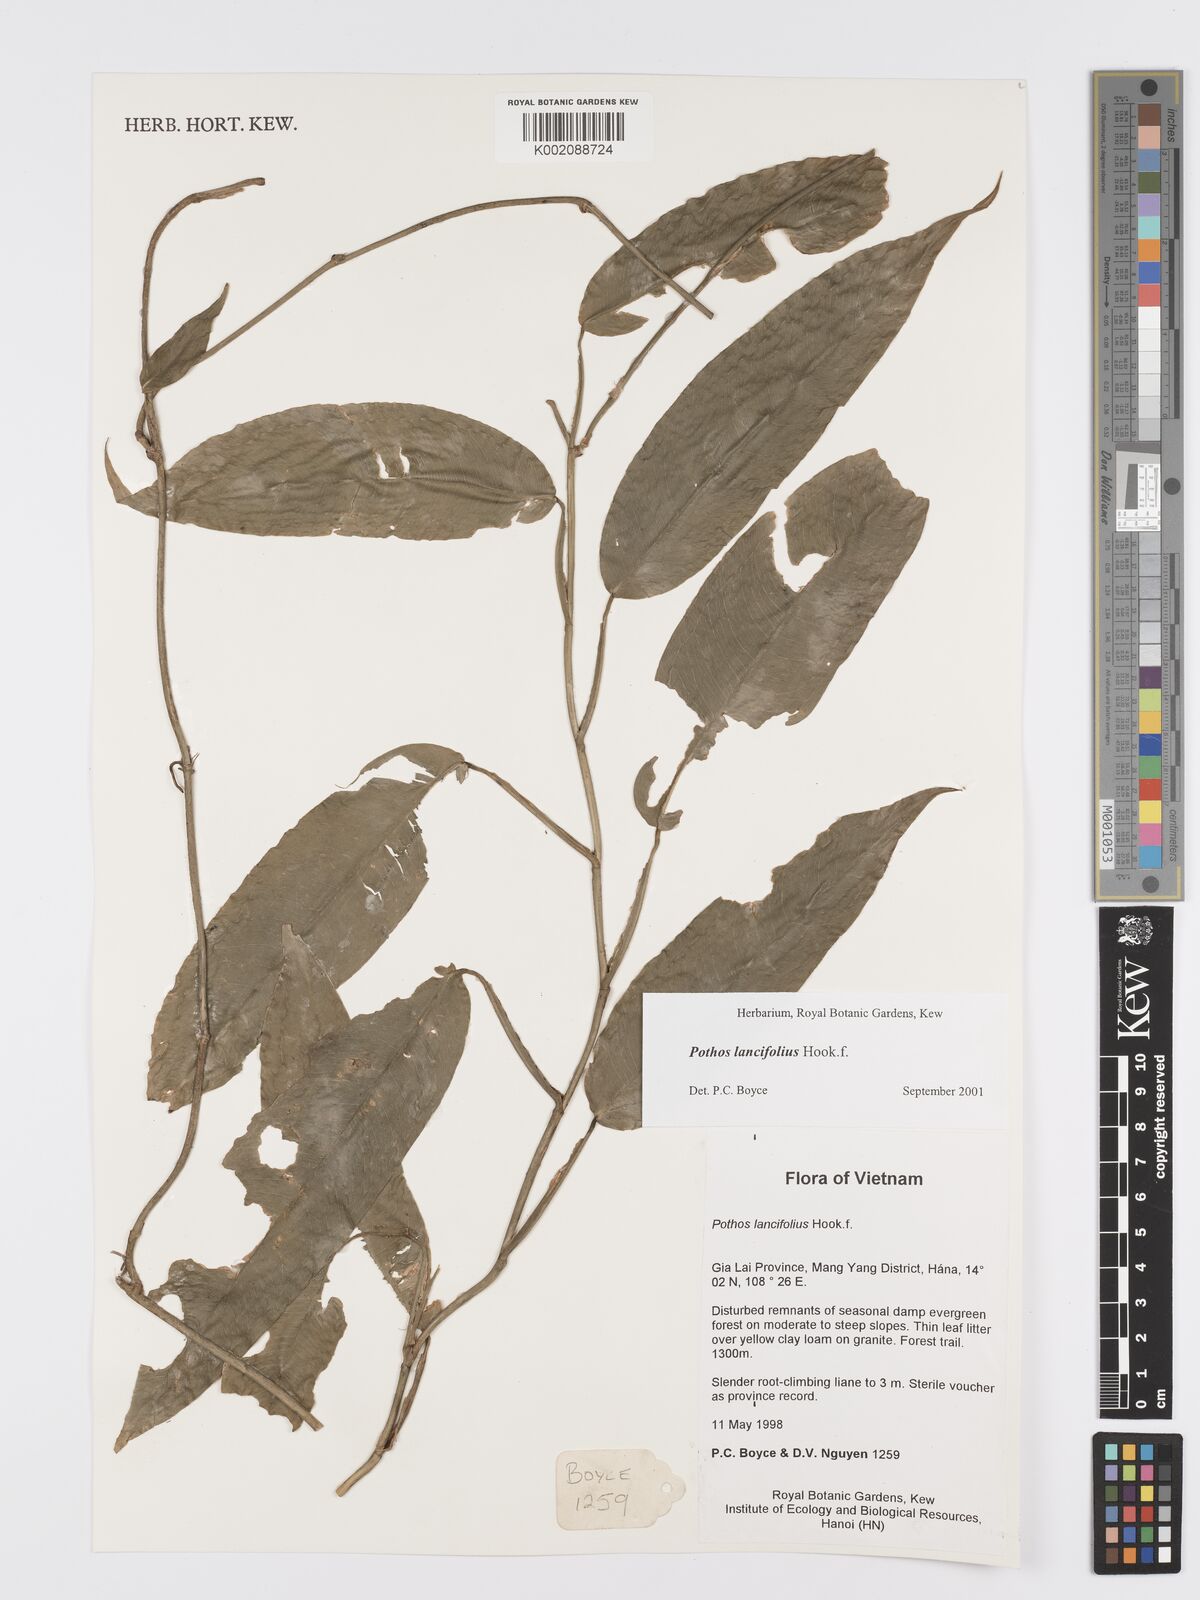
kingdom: Plantae
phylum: Tracheophyta
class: Liliopsida
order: Alismatales
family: Araceae
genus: Pothos
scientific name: Pothos lancifolius
